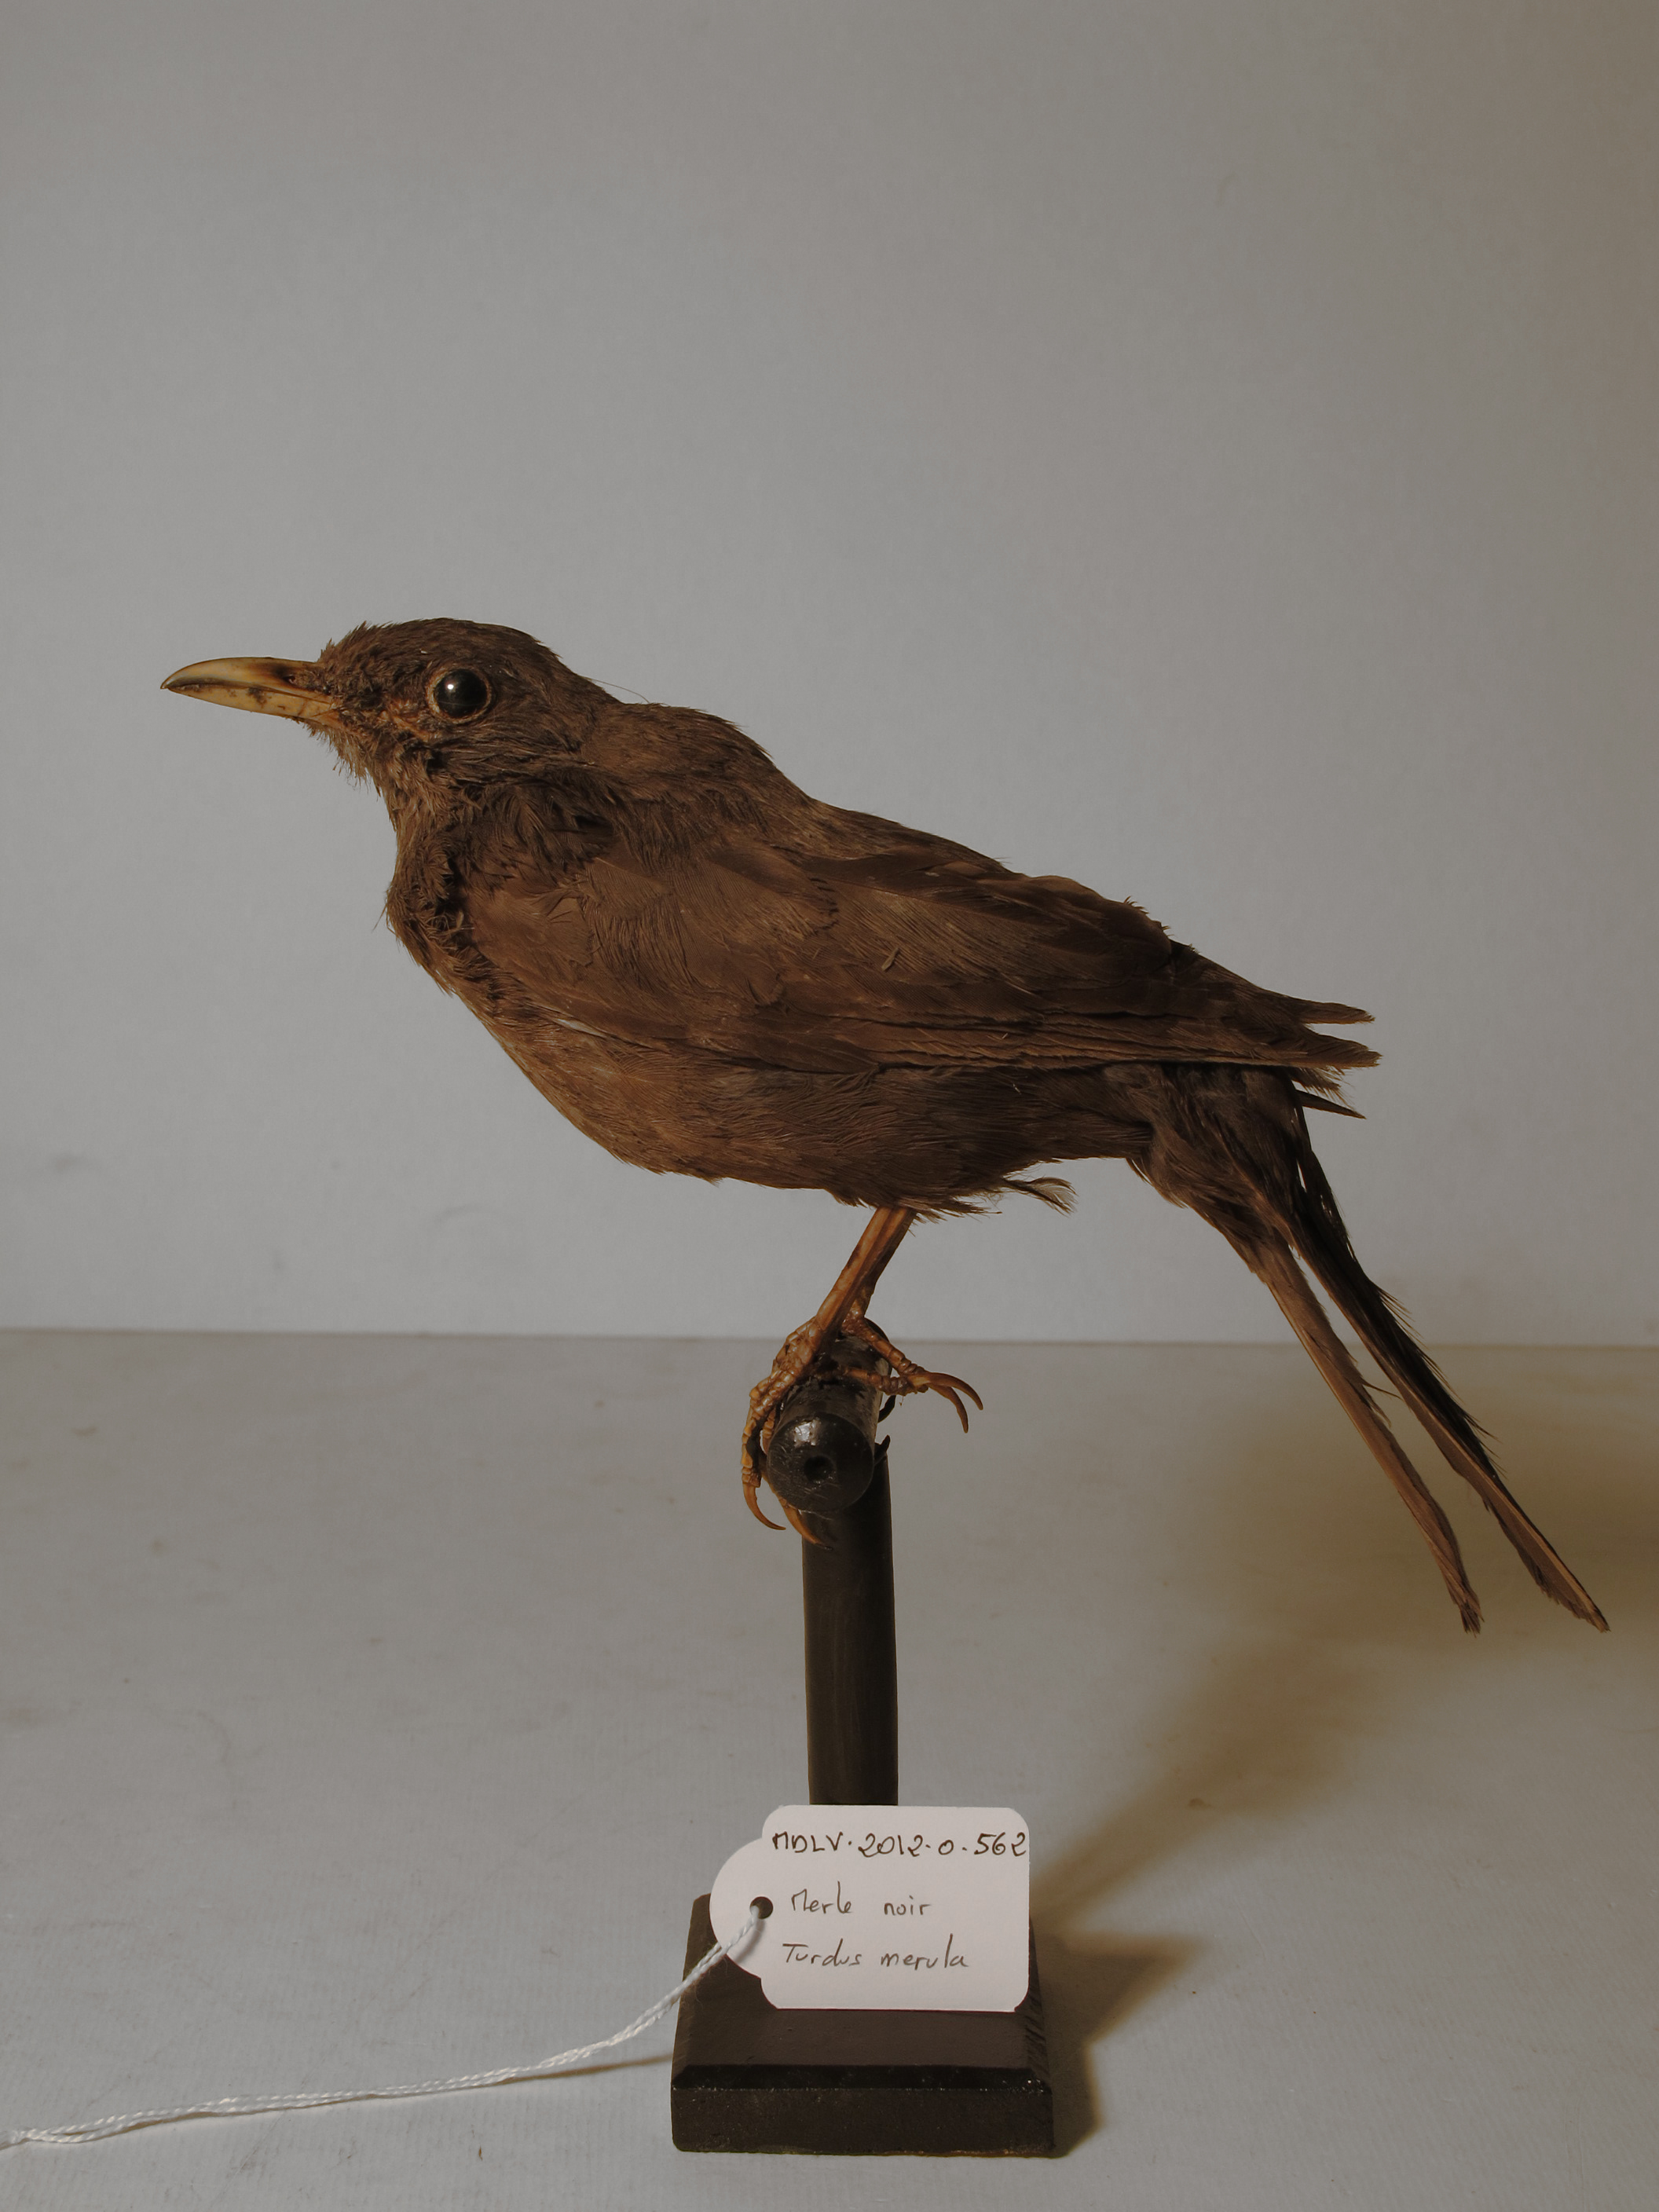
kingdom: Animalia
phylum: Chordata
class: Aves
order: Passeriformes
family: Turdidae
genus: Turdus
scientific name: Turdus merula
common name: Common Blackbird
